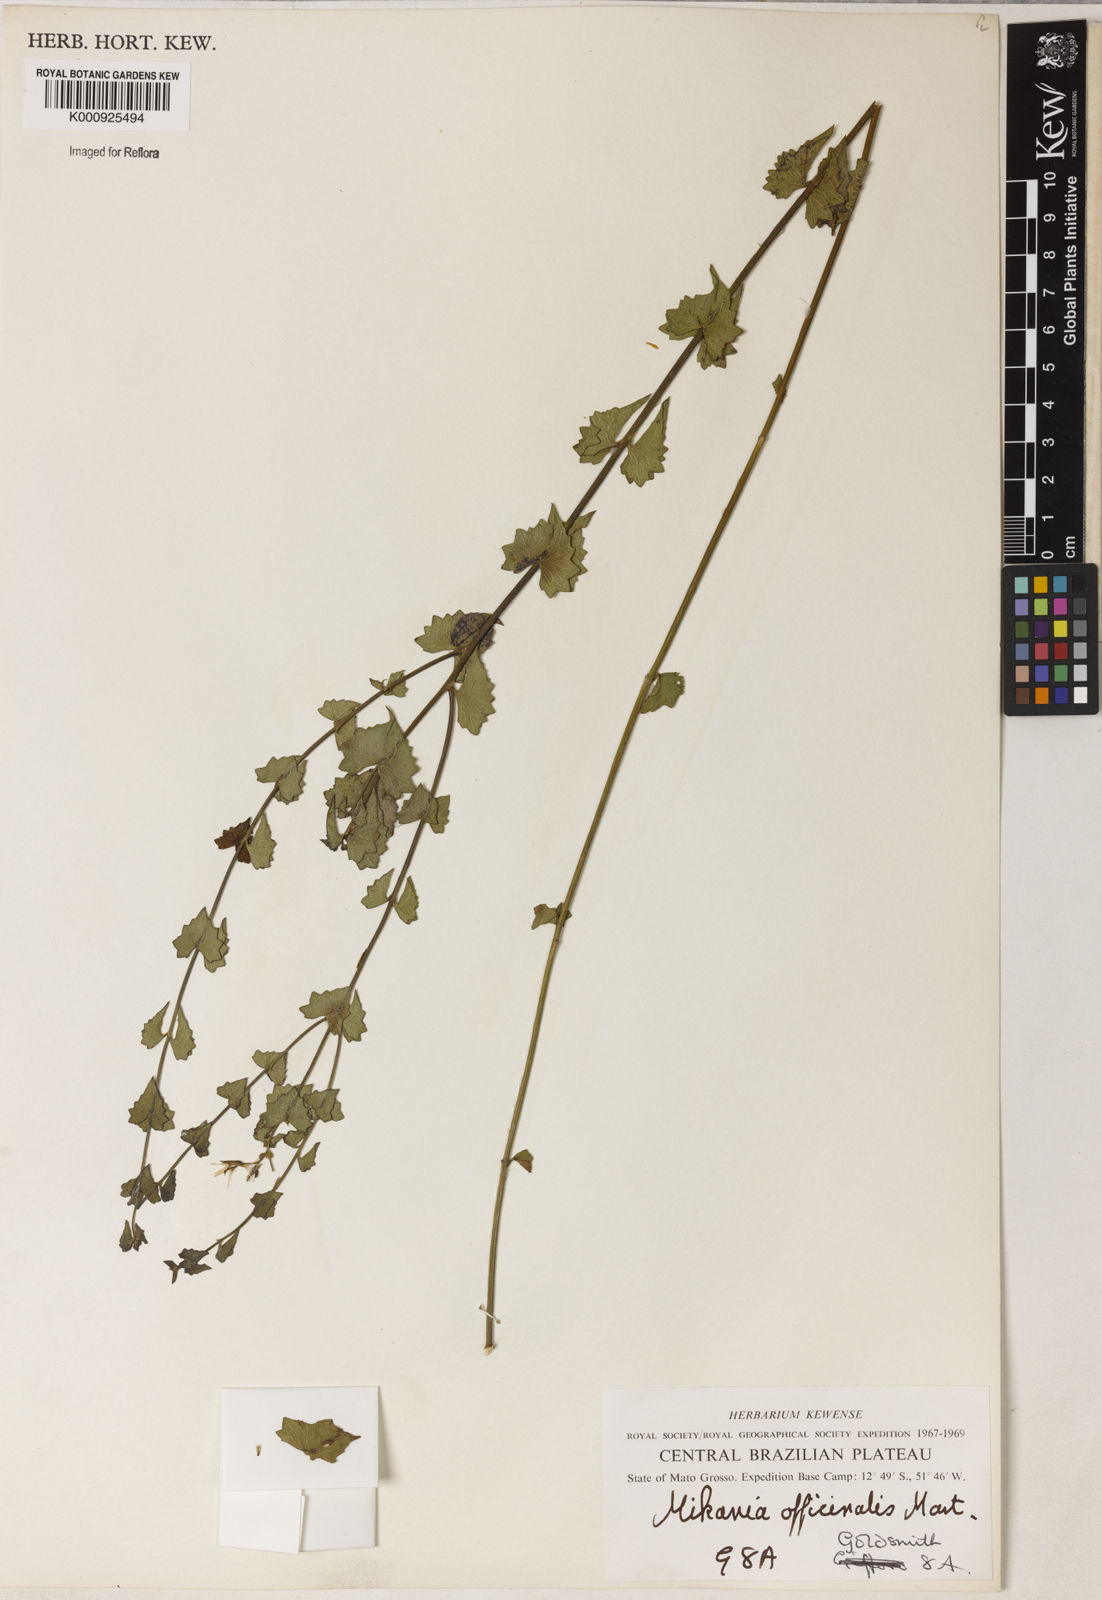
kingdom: Plantae
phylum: Tracheophyta
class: Magnoliopsida
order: Asterales
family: Asteraceae
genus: Mikania
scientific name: Mikania officinalis
